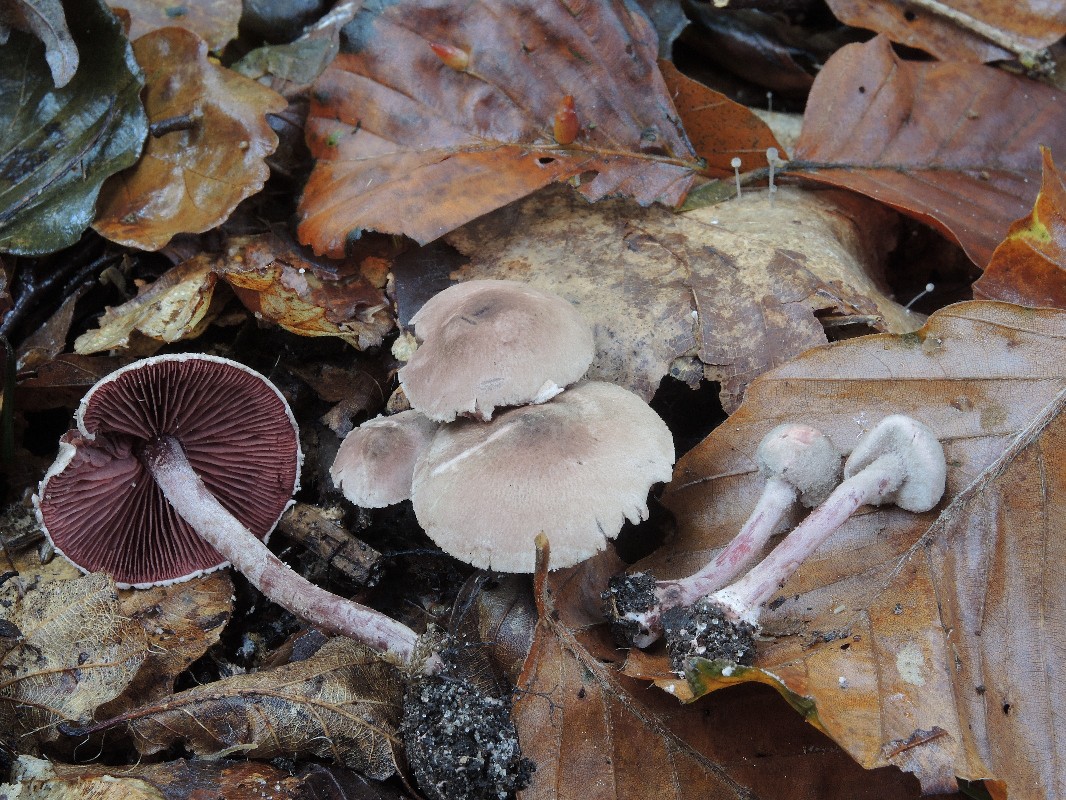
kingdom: Fungi
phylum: Basidiomycota
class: Agaricomycetes
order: Agaricales
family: Agaricaceae
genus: Melanophyllum
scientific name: Melanophyllum haematospermum
